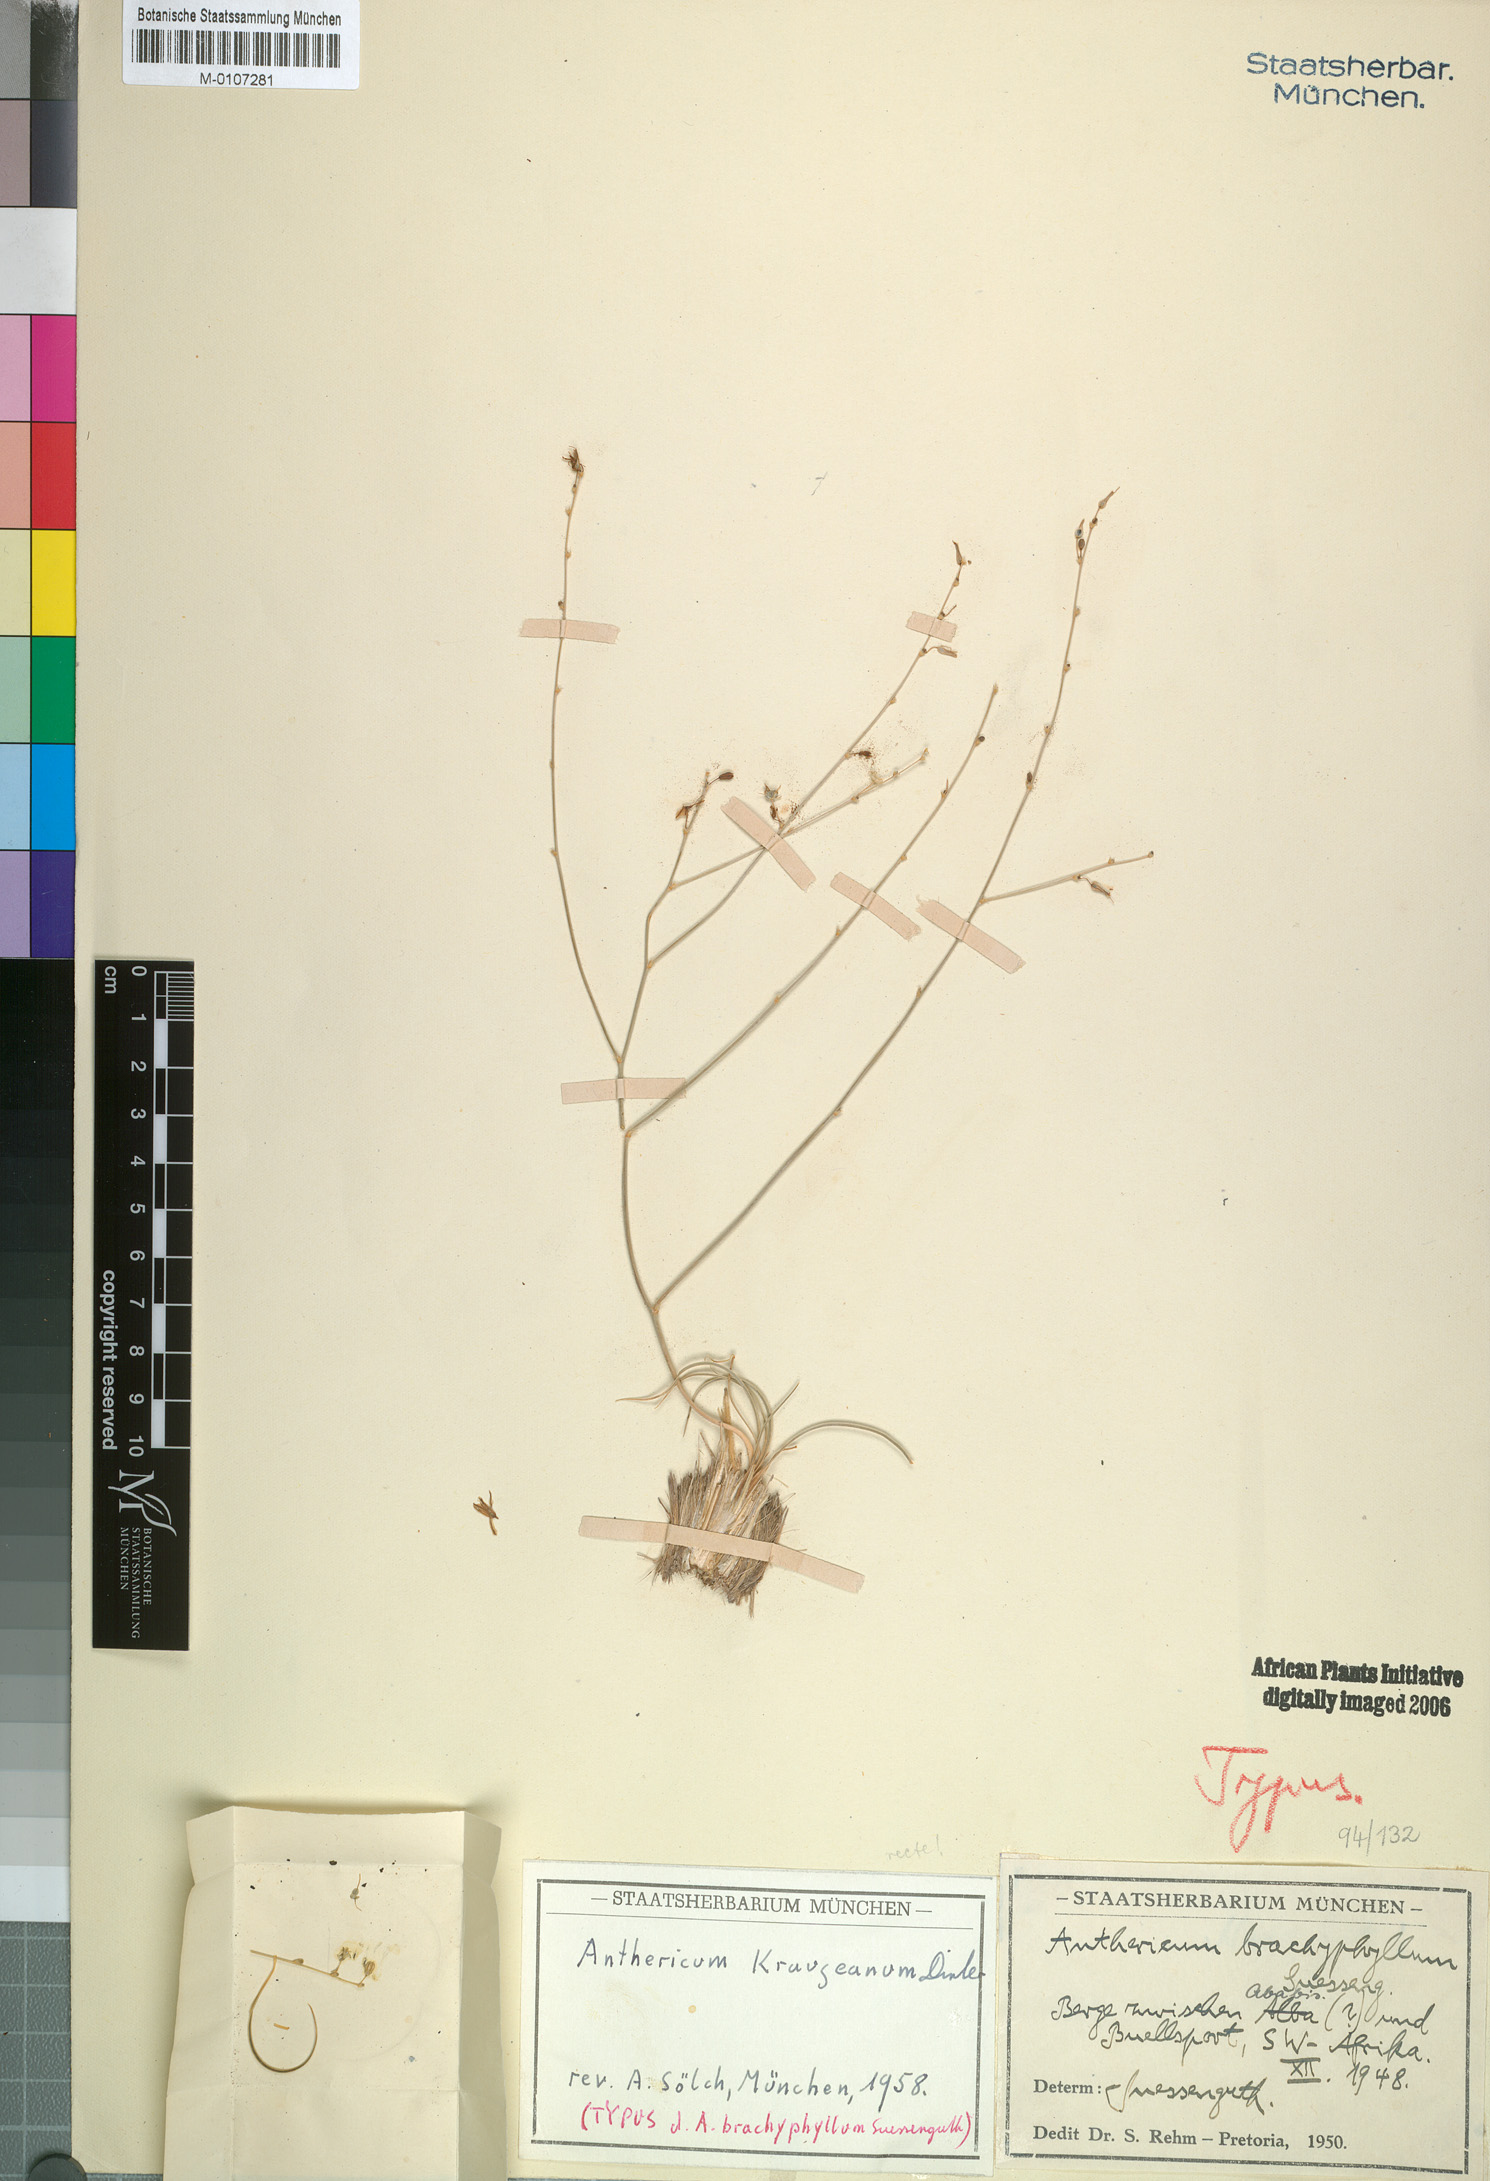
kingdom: Plantae
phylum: Tracheophyta
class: Liliopsida
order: Asparagales
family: Asparagaceae
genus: Chlorophytum
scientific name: Chlorophytum krauseanum
